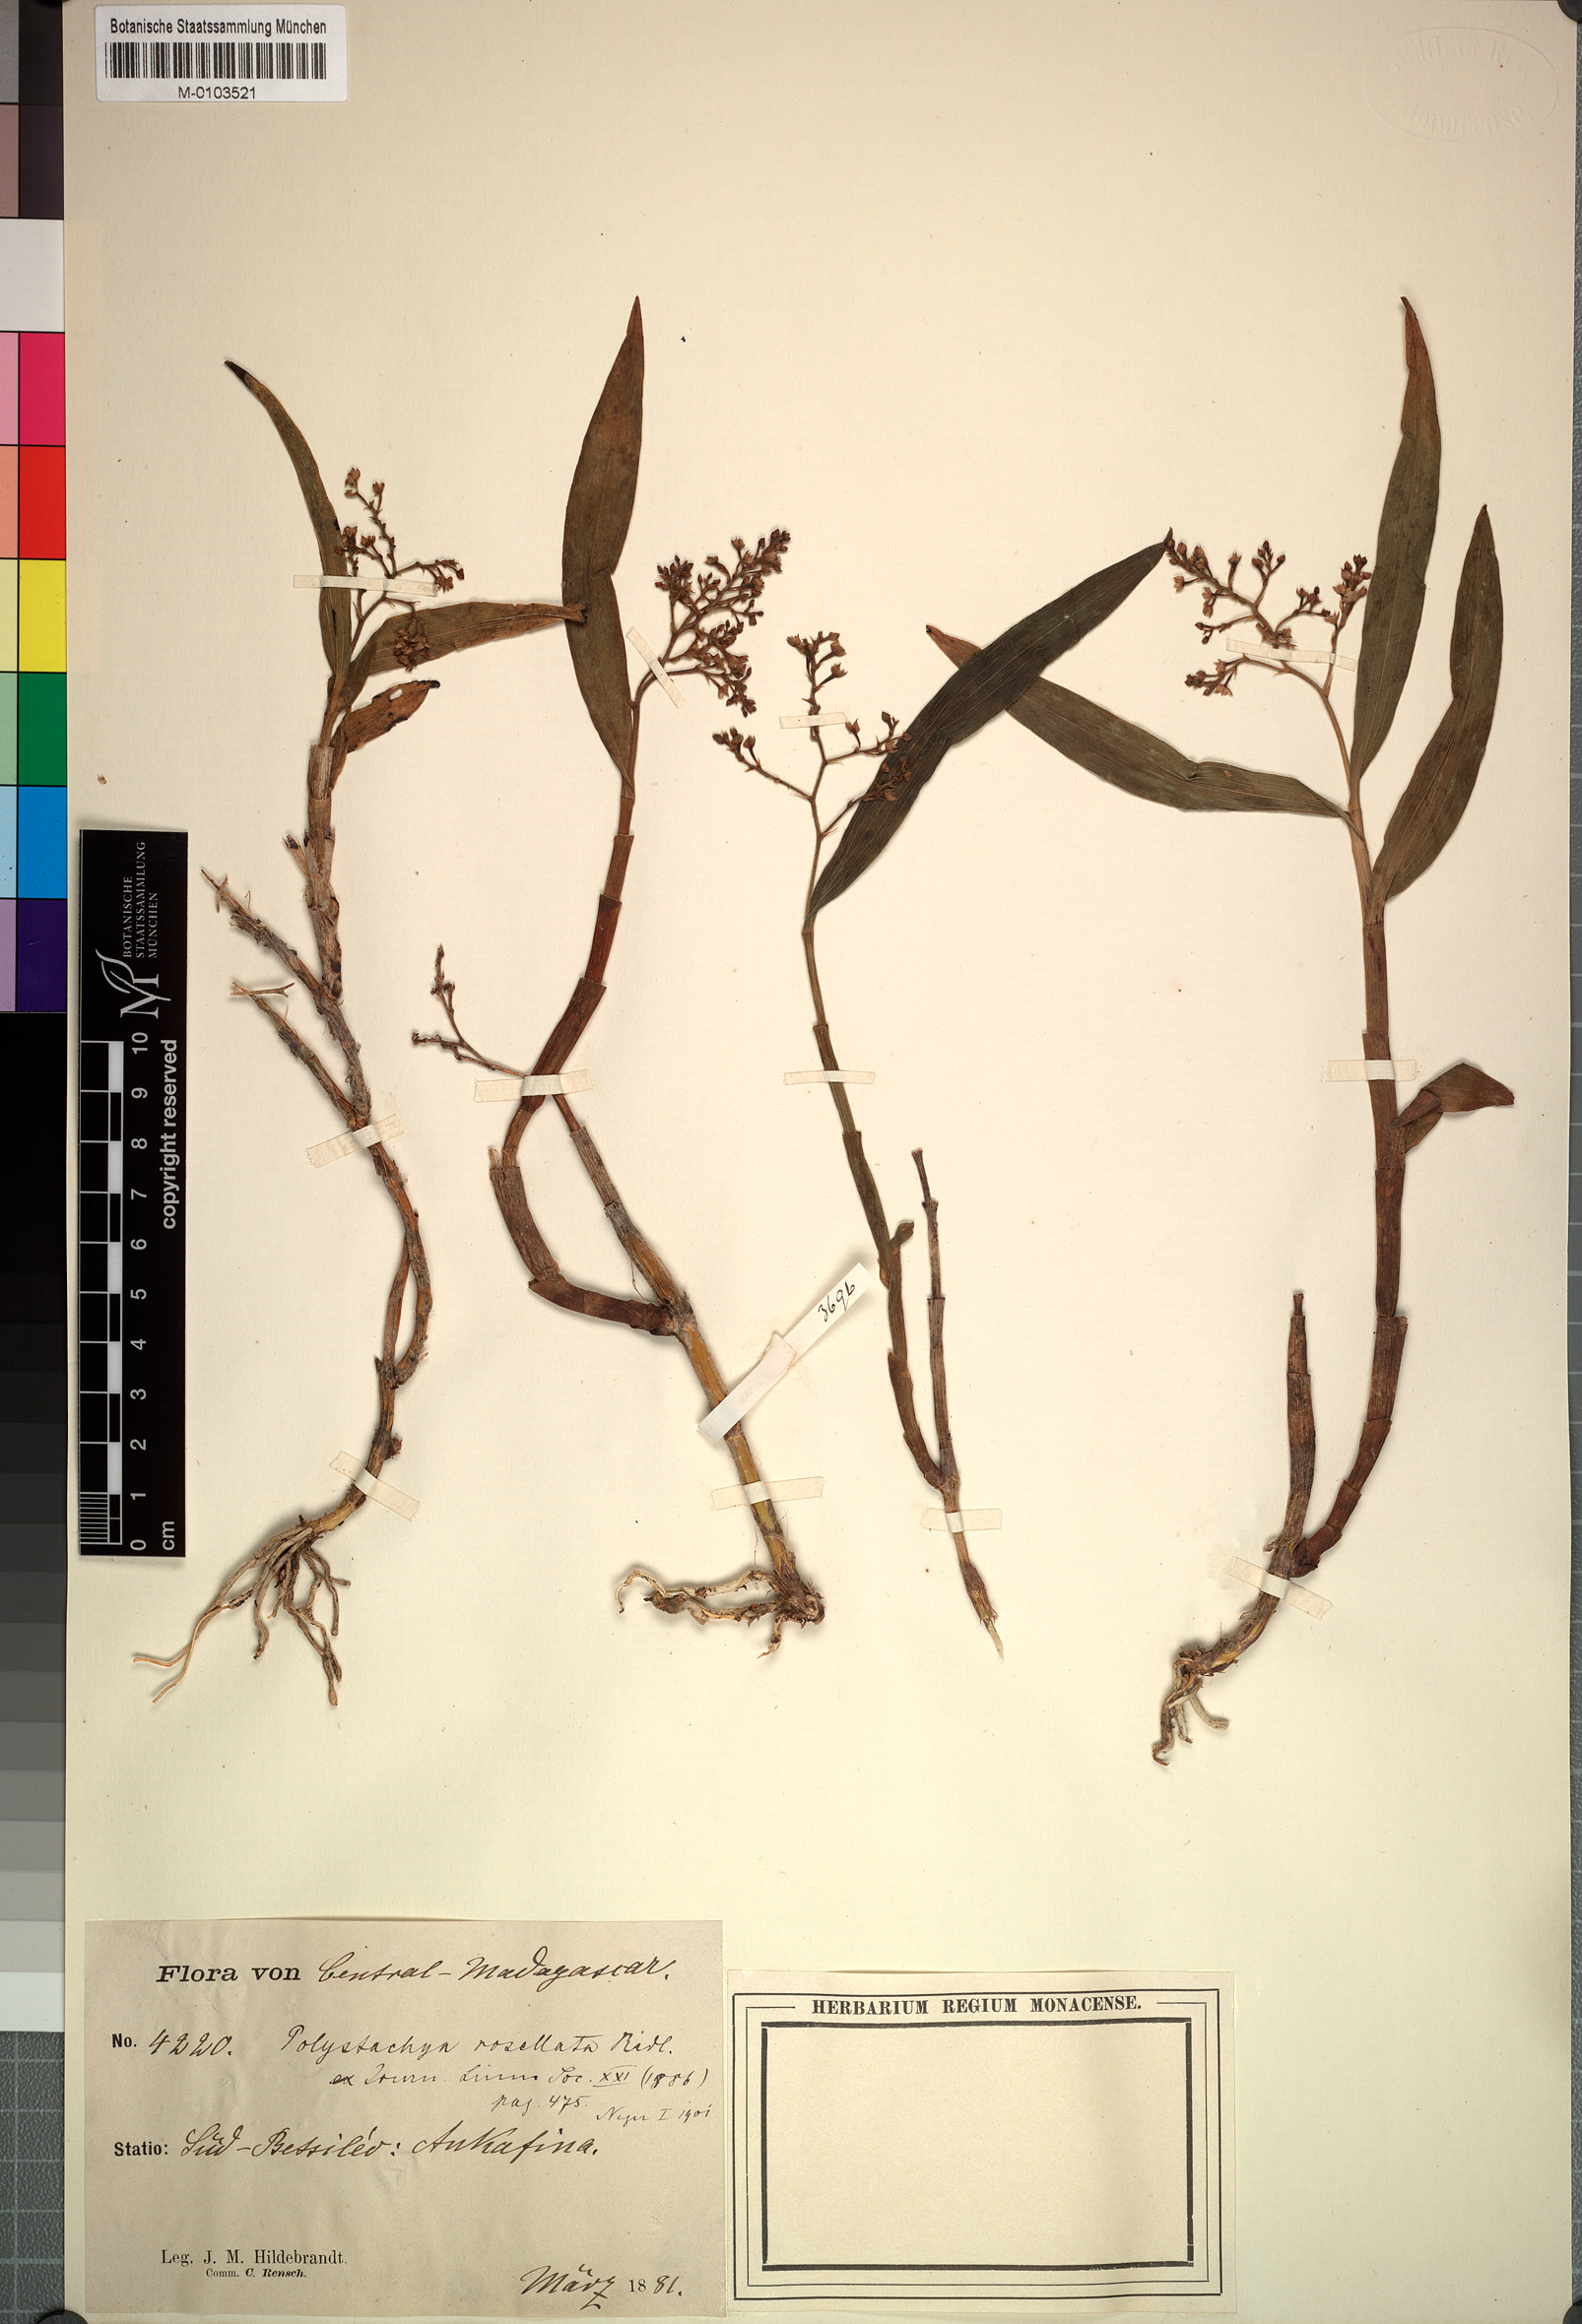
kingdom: Plantae
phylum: Tracheophyta
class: Liliopsida
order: Asparagales
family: Orchidaceae
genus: Polystachya
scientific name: Polystachya rosellata
